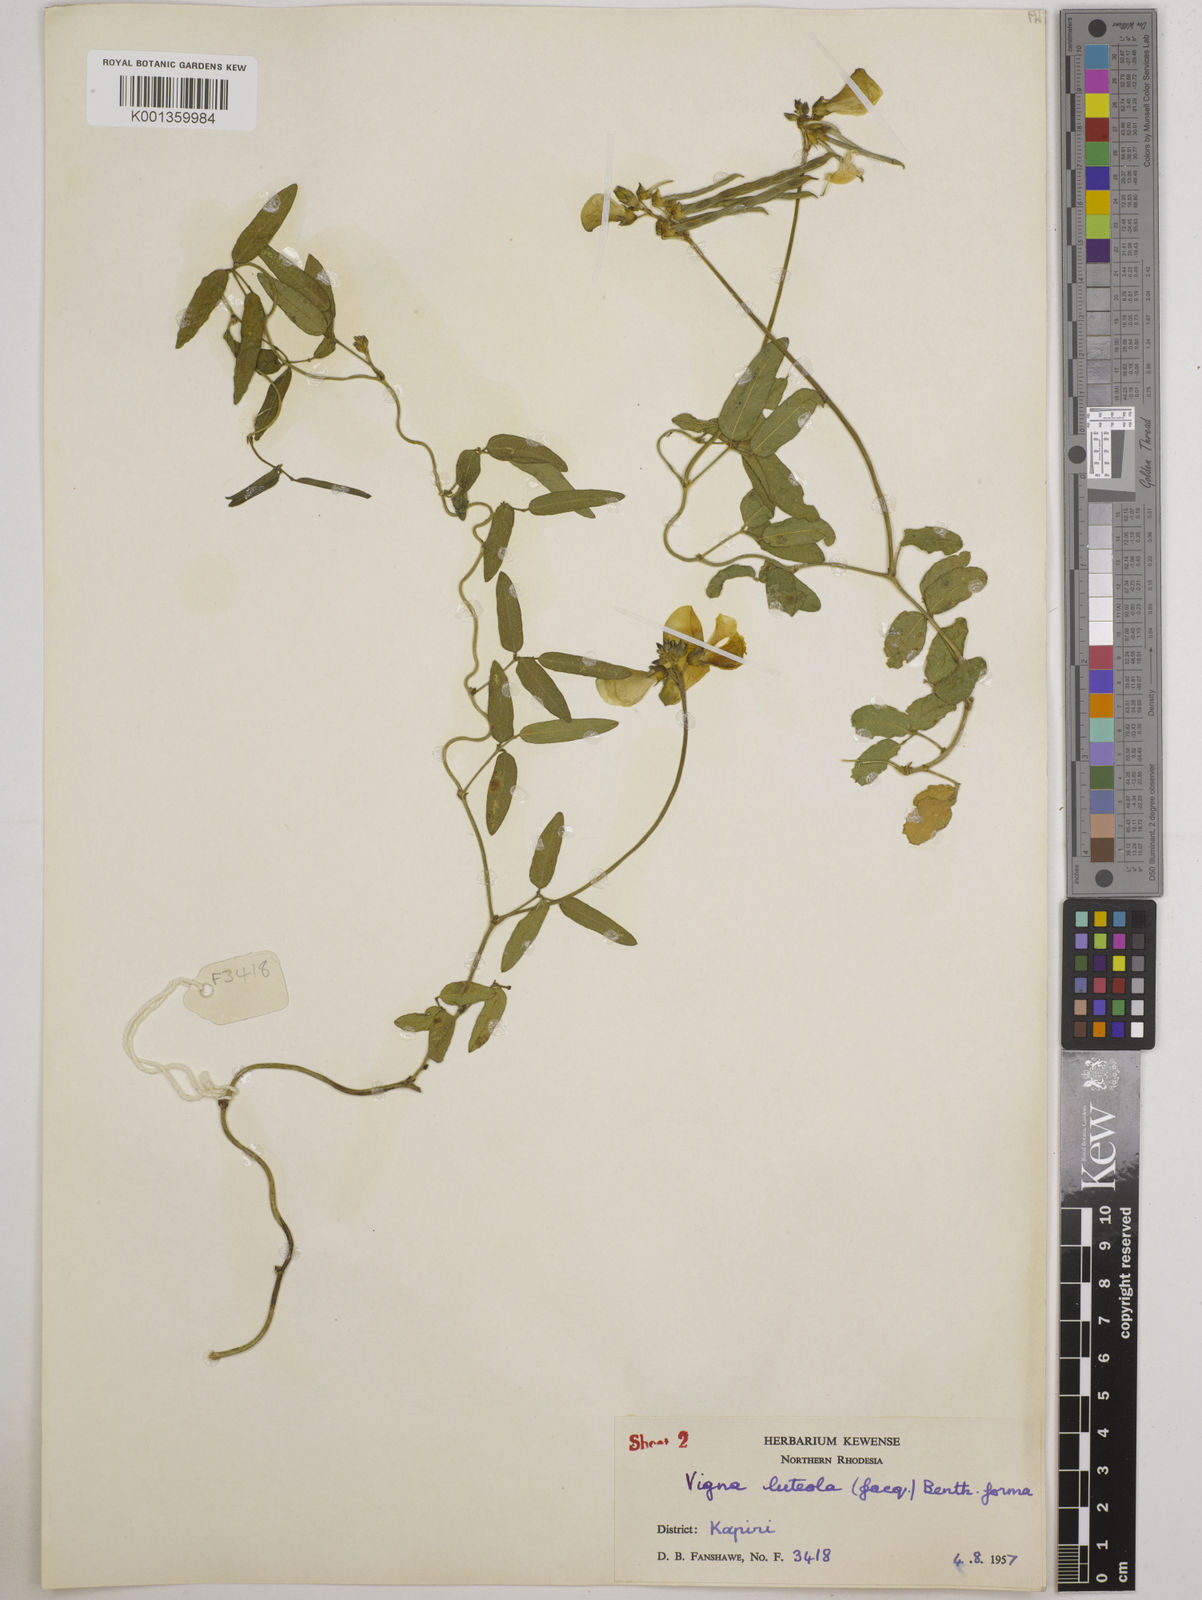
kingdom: Plantae
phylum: Tracheophyta
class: Magnoliopsida
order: Fabales
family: Fabaceae
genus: Vigna
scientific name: Vigna luteola
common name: Hairypod cowpea
